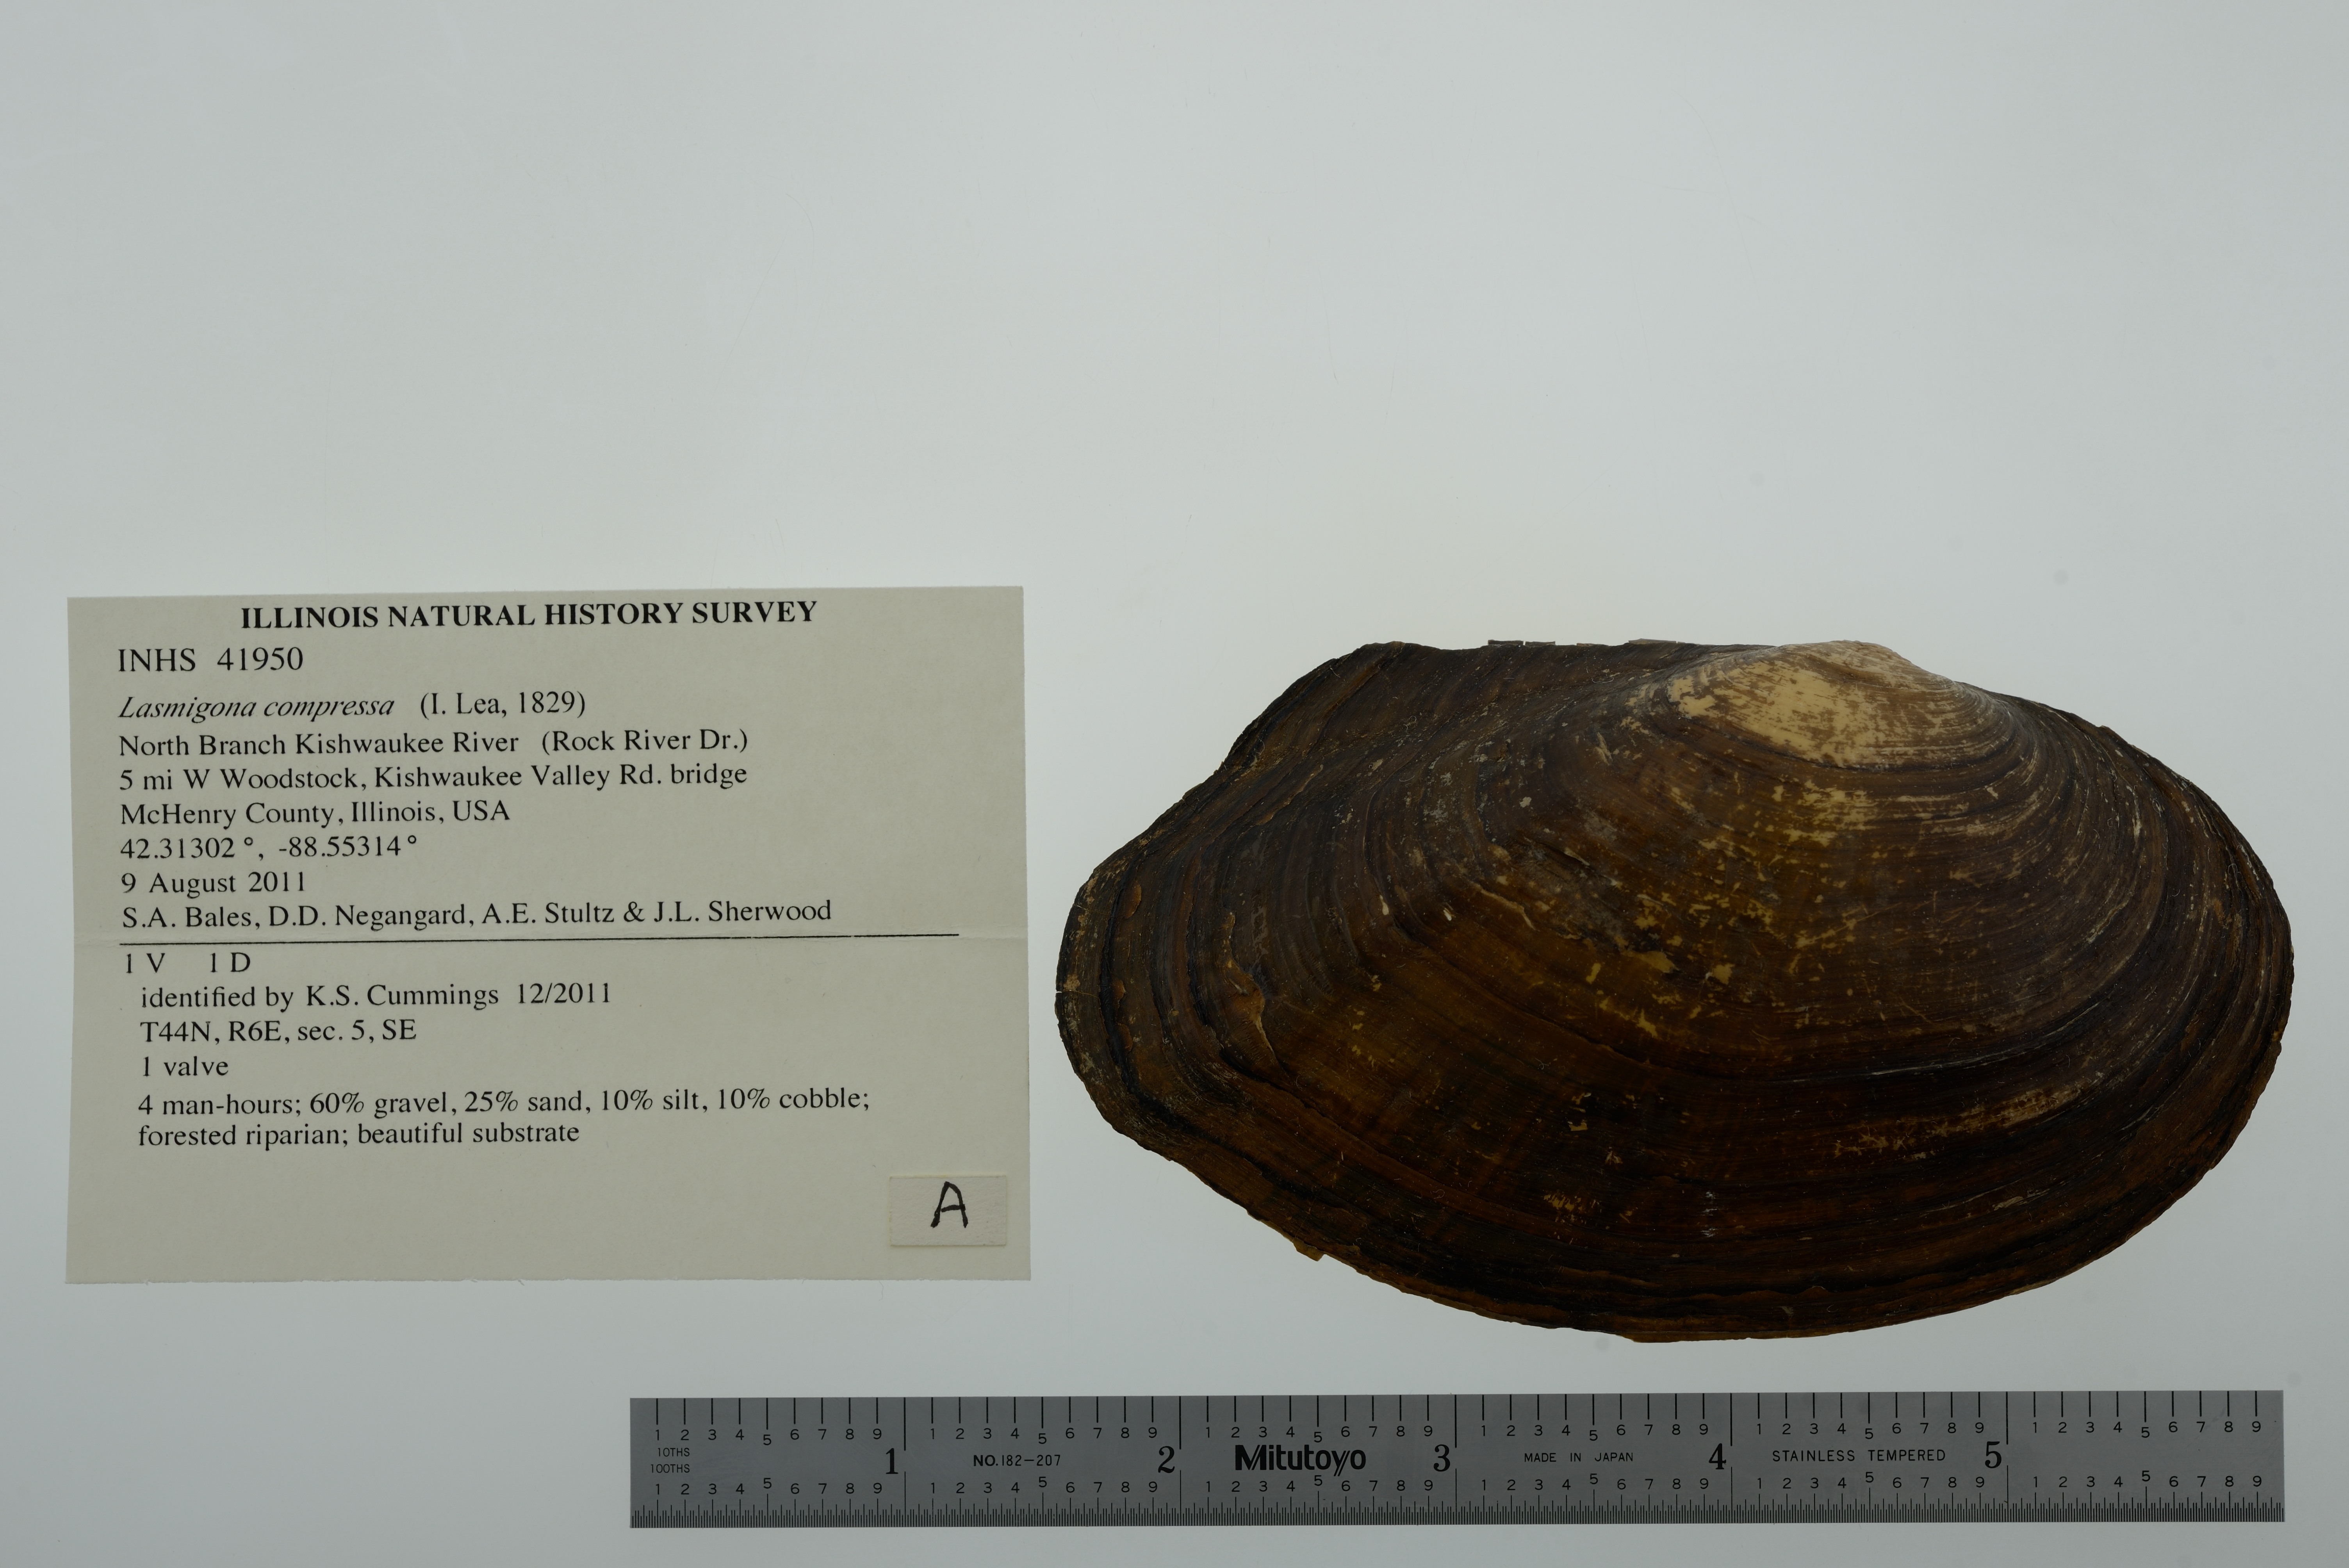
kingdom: Animalia
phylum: Mollusca
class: Bivalvia
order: Unionida
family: Unionidae
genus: Lasmigona
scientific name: Lasmigona compressa
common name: Creek heelsplitter
